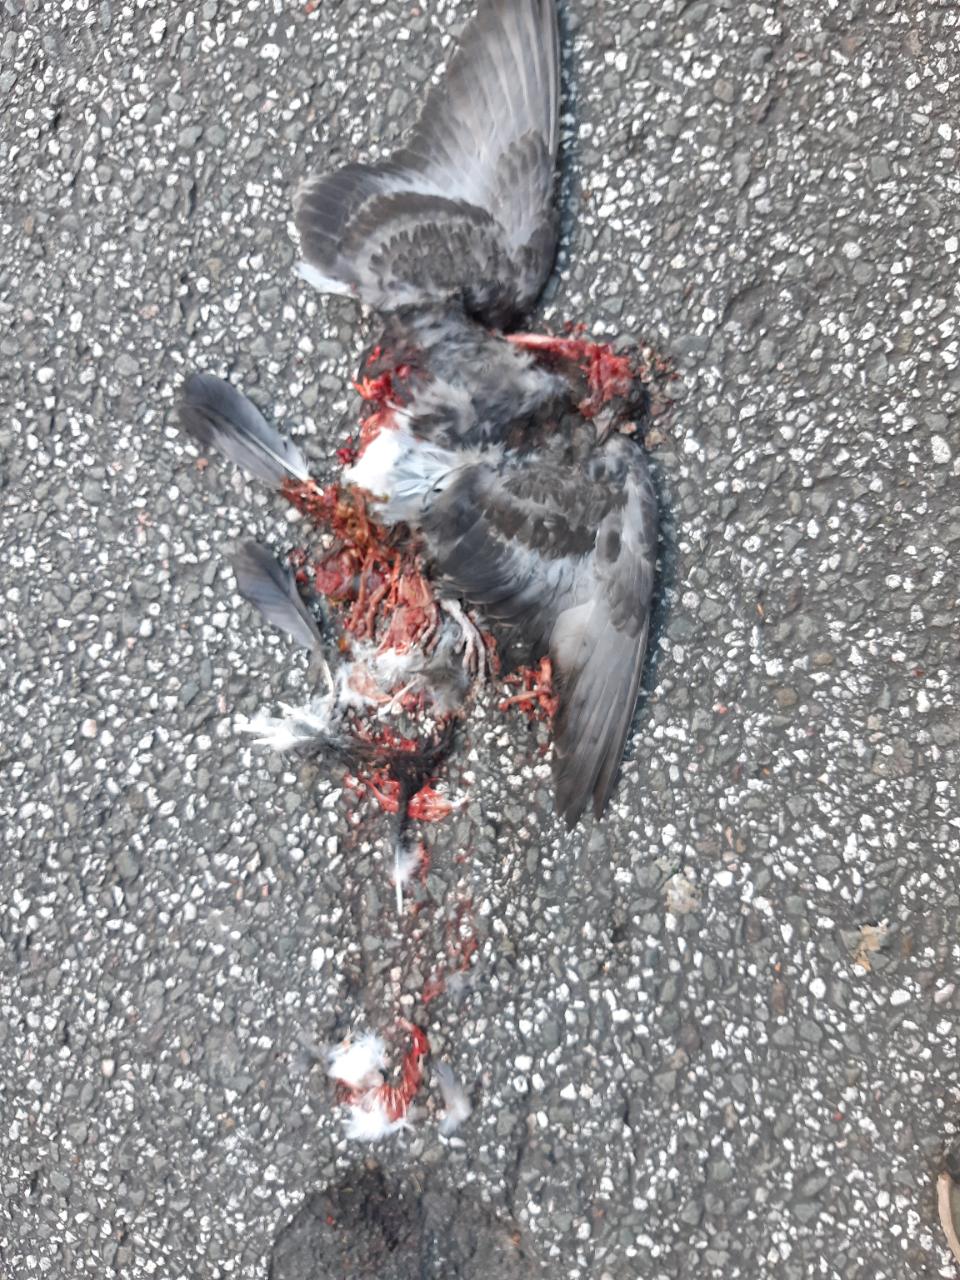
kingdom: Animalia
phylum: Chordata
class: Aves
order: Columbiformes
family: Columbidae
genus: Columba
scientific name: Columba livia
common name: Rock pigeon
